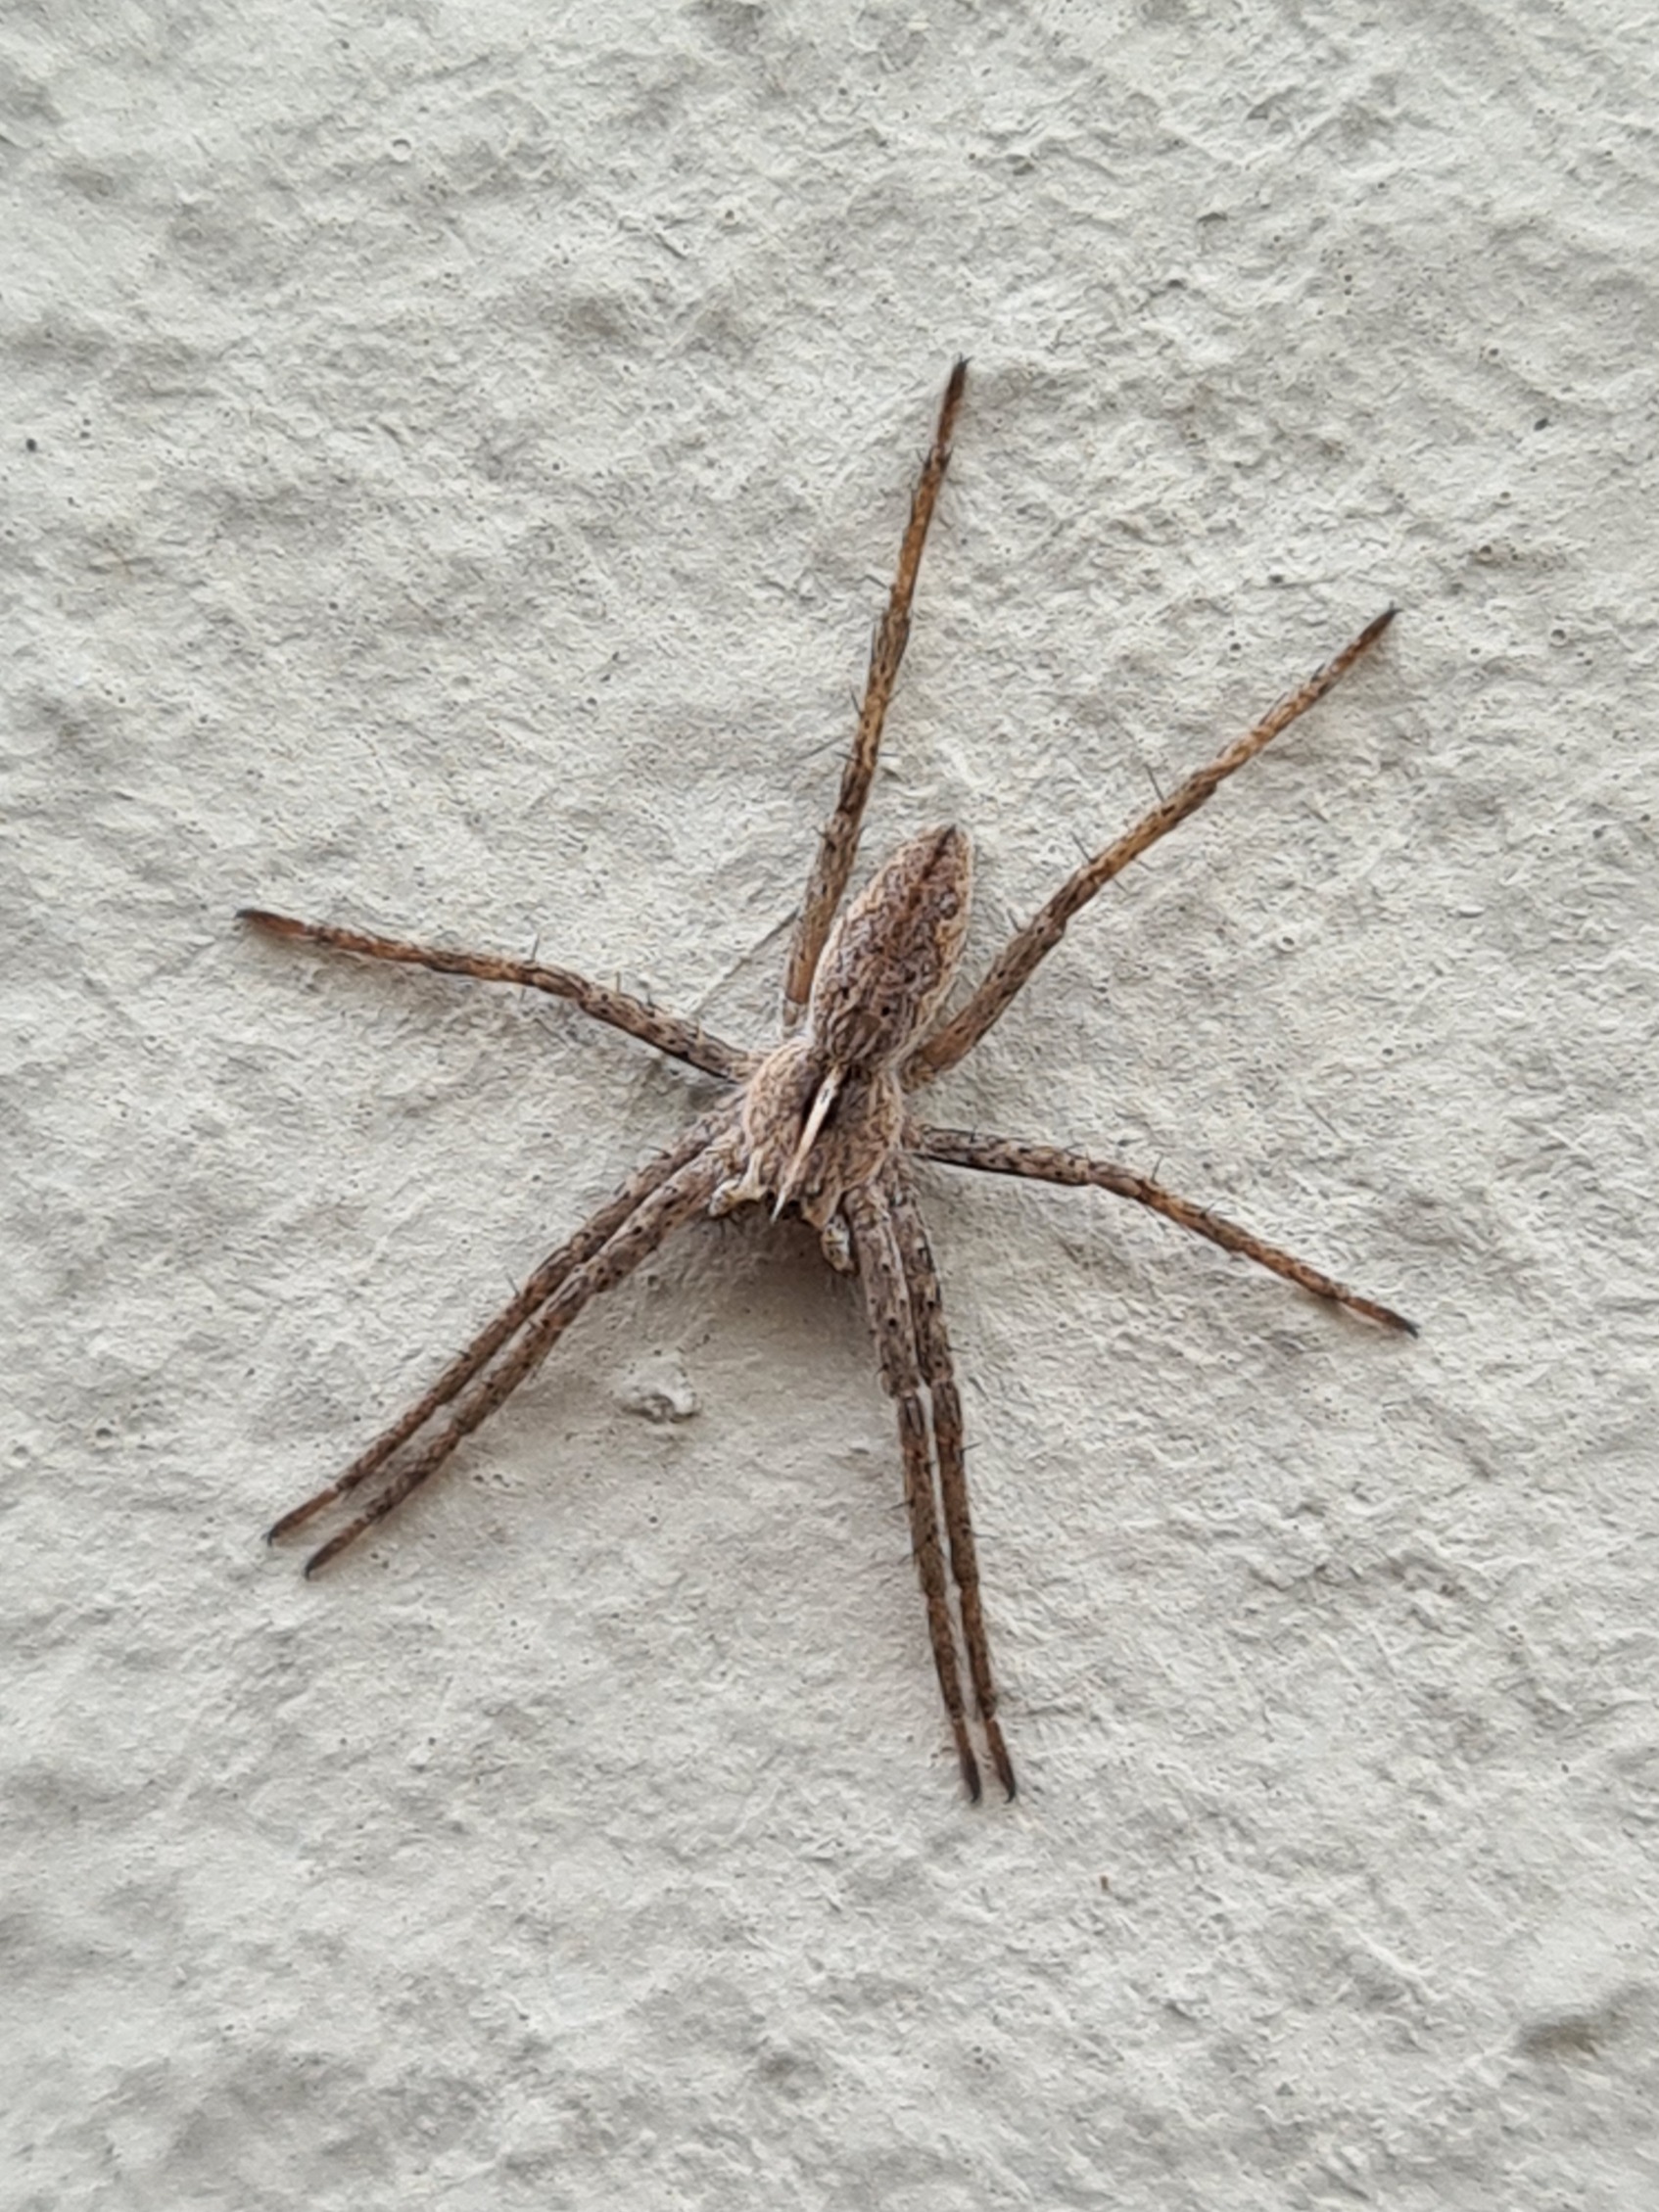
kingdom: Animalia
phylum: Arthropoda
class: Arachnida
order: Araneae
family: Pisauridae
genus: Pisaura
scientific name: Pisaura mirabilis
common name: Almindelig rovedderkop
